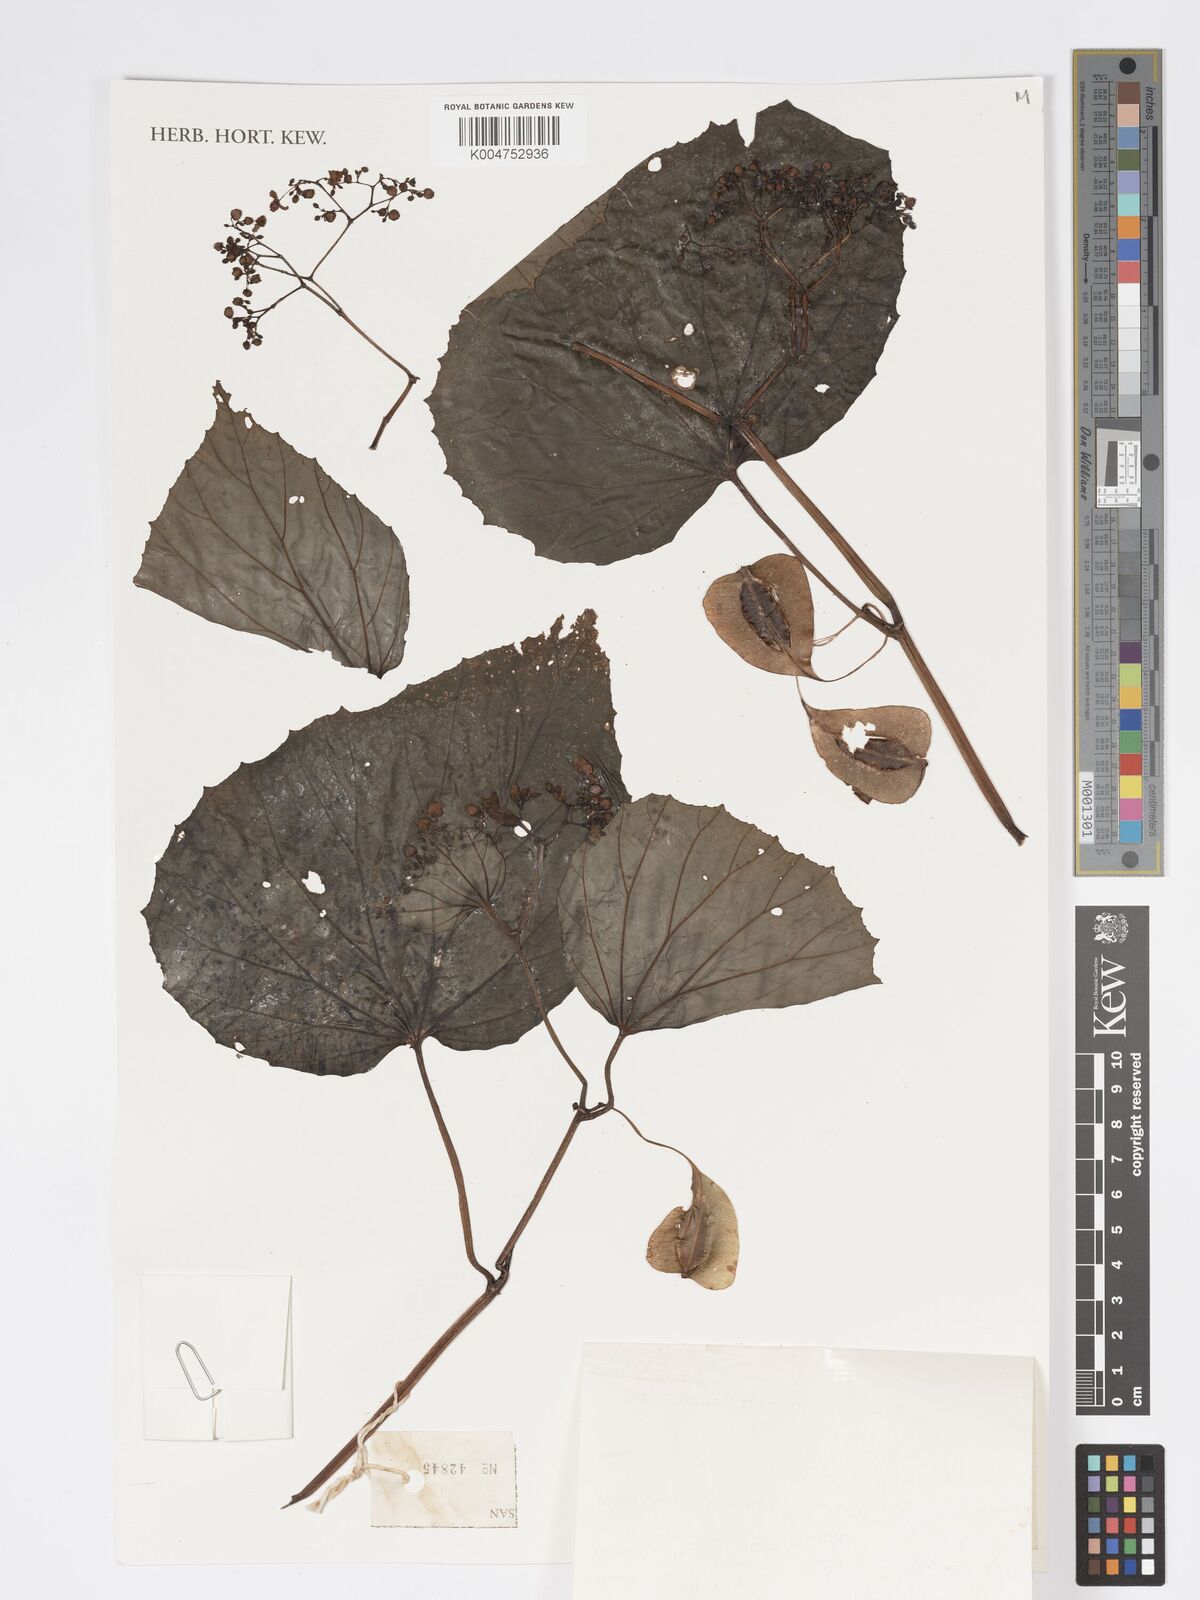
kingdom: Plantae
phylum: Tracheophyta
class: Magnoliopsida
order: Cucurbitales
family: Begoniaceae
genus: Begonia
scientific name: Begonia
